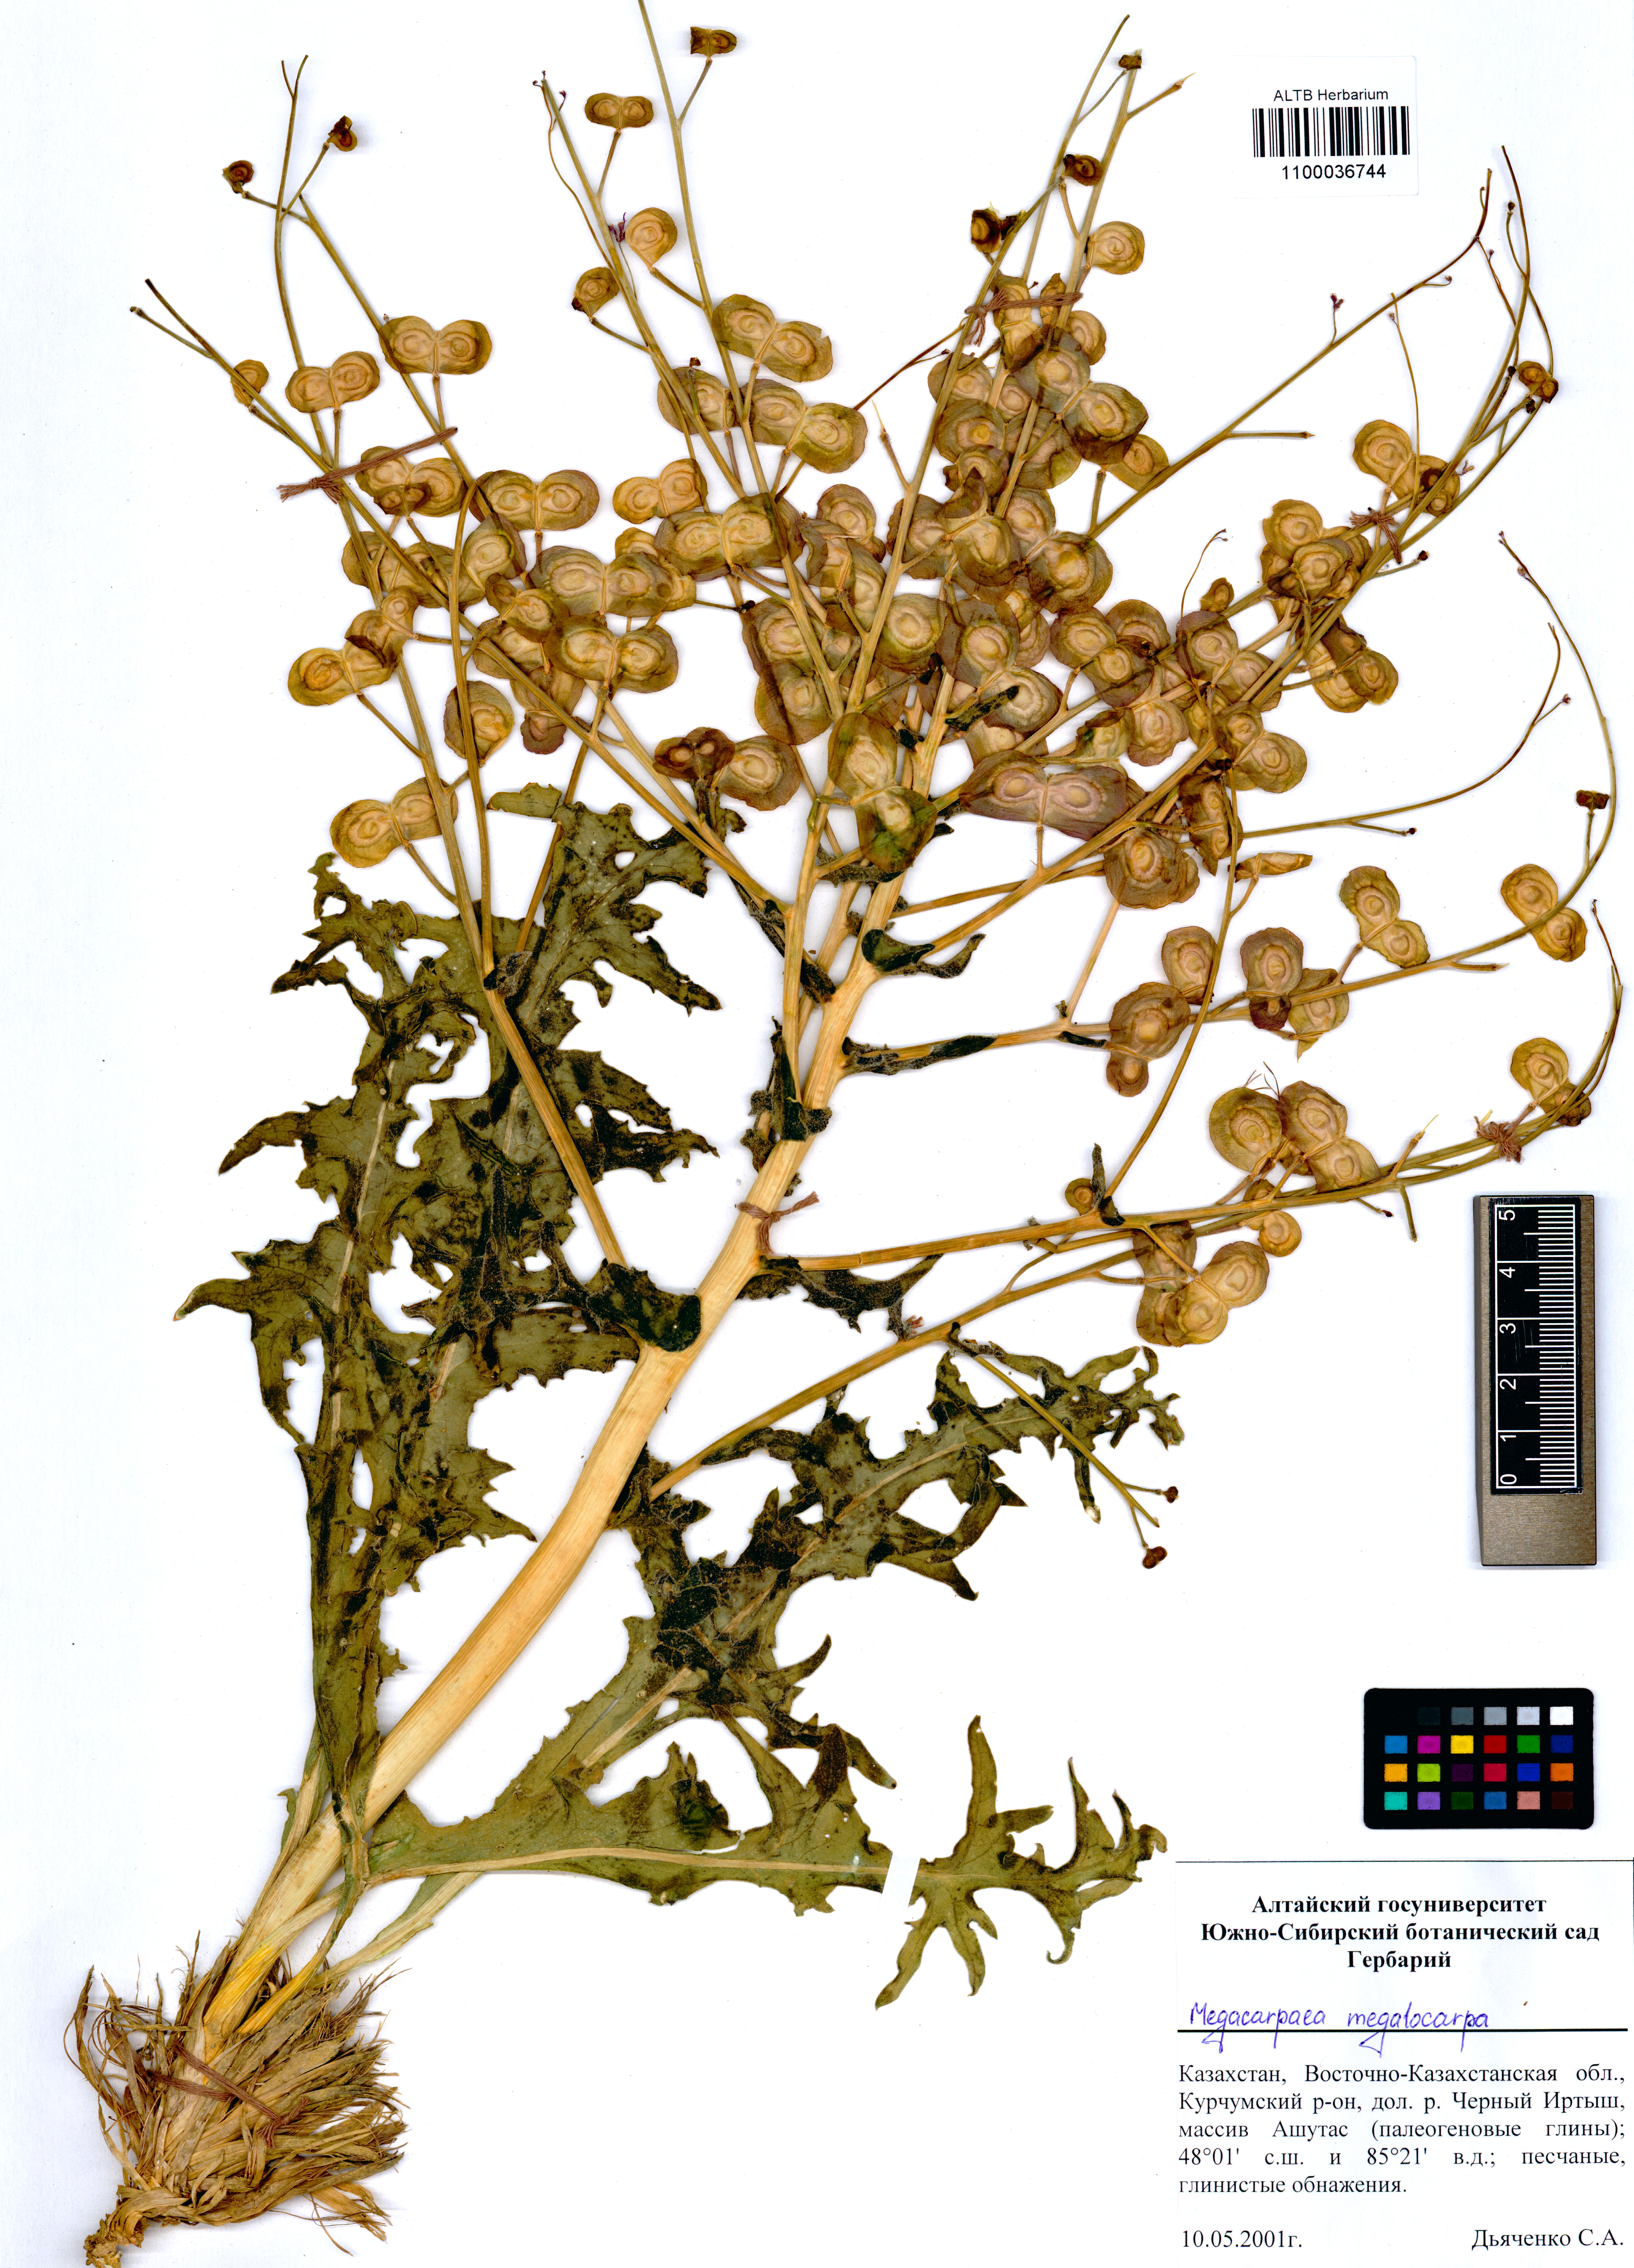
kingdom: Plantae
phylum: Tracheophyta
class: Magnoliopsida
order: Brassicales
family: Brassicaceae
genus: Megacarpaea
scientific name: Megacarpaea megalocarpa
